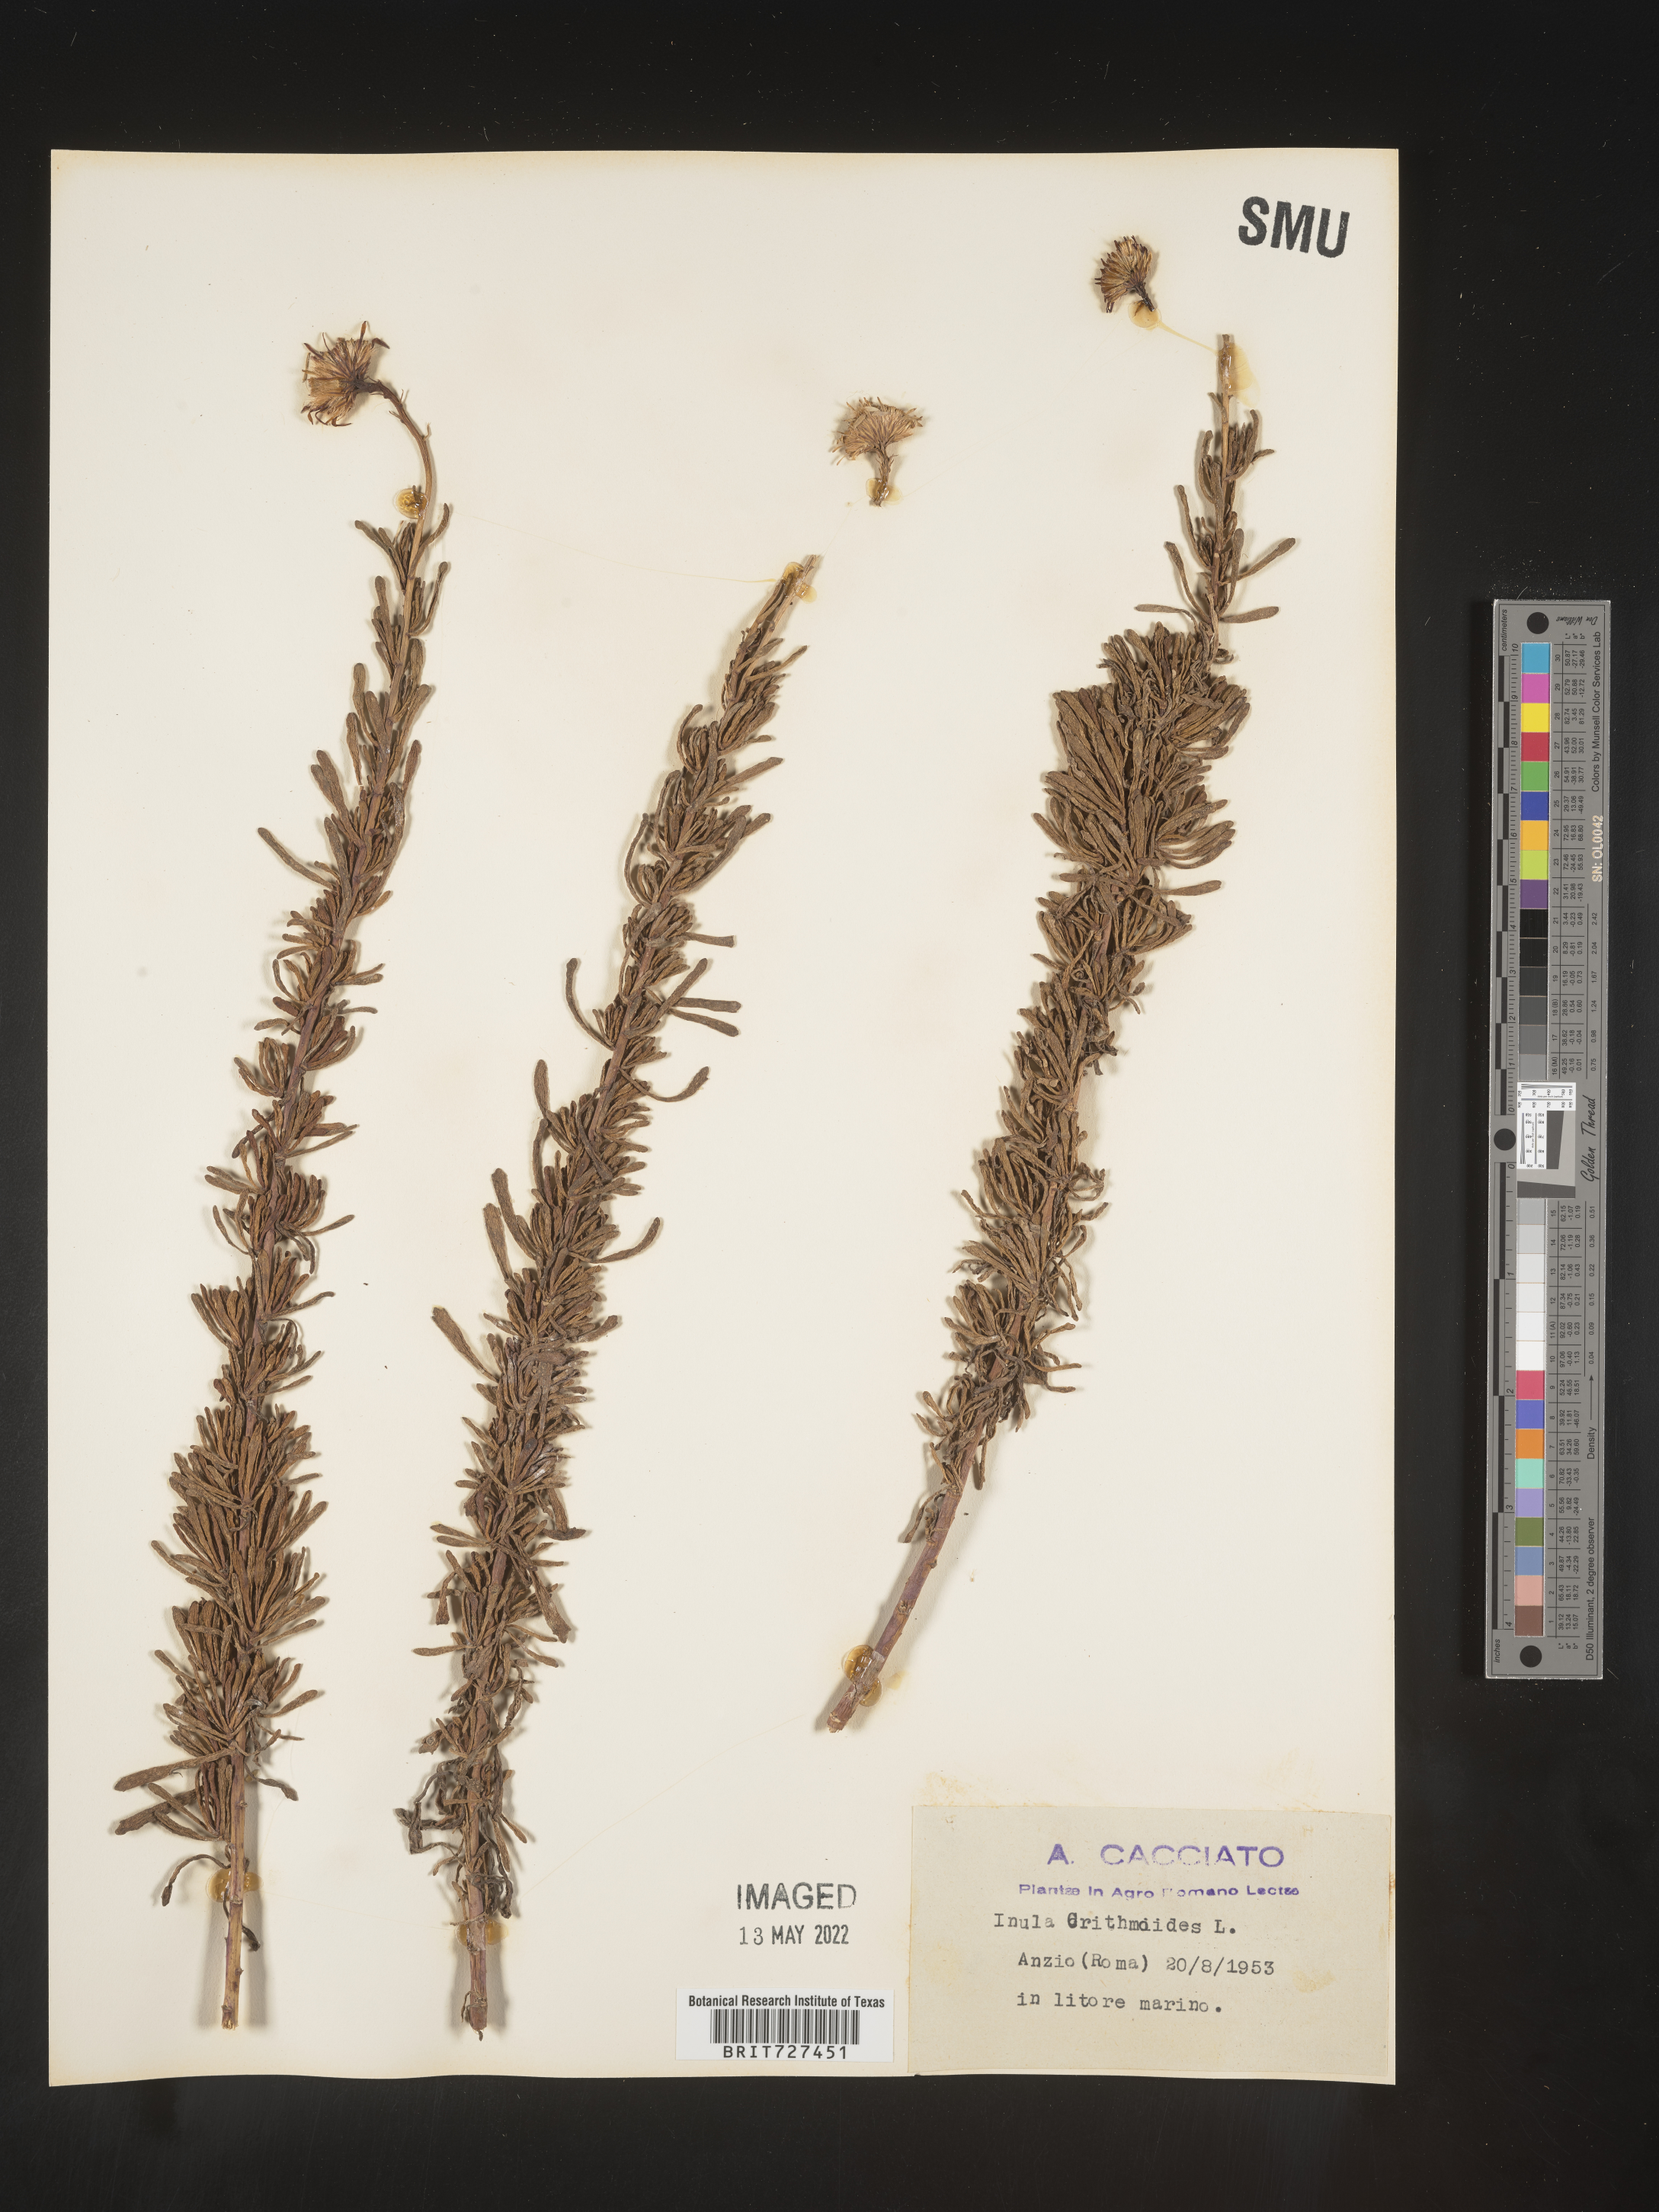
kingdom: Plantae
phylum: Tracheophyta
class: Magnoliopsida
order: Asterales
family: Asteraceae
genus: Inula
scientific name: Inula
